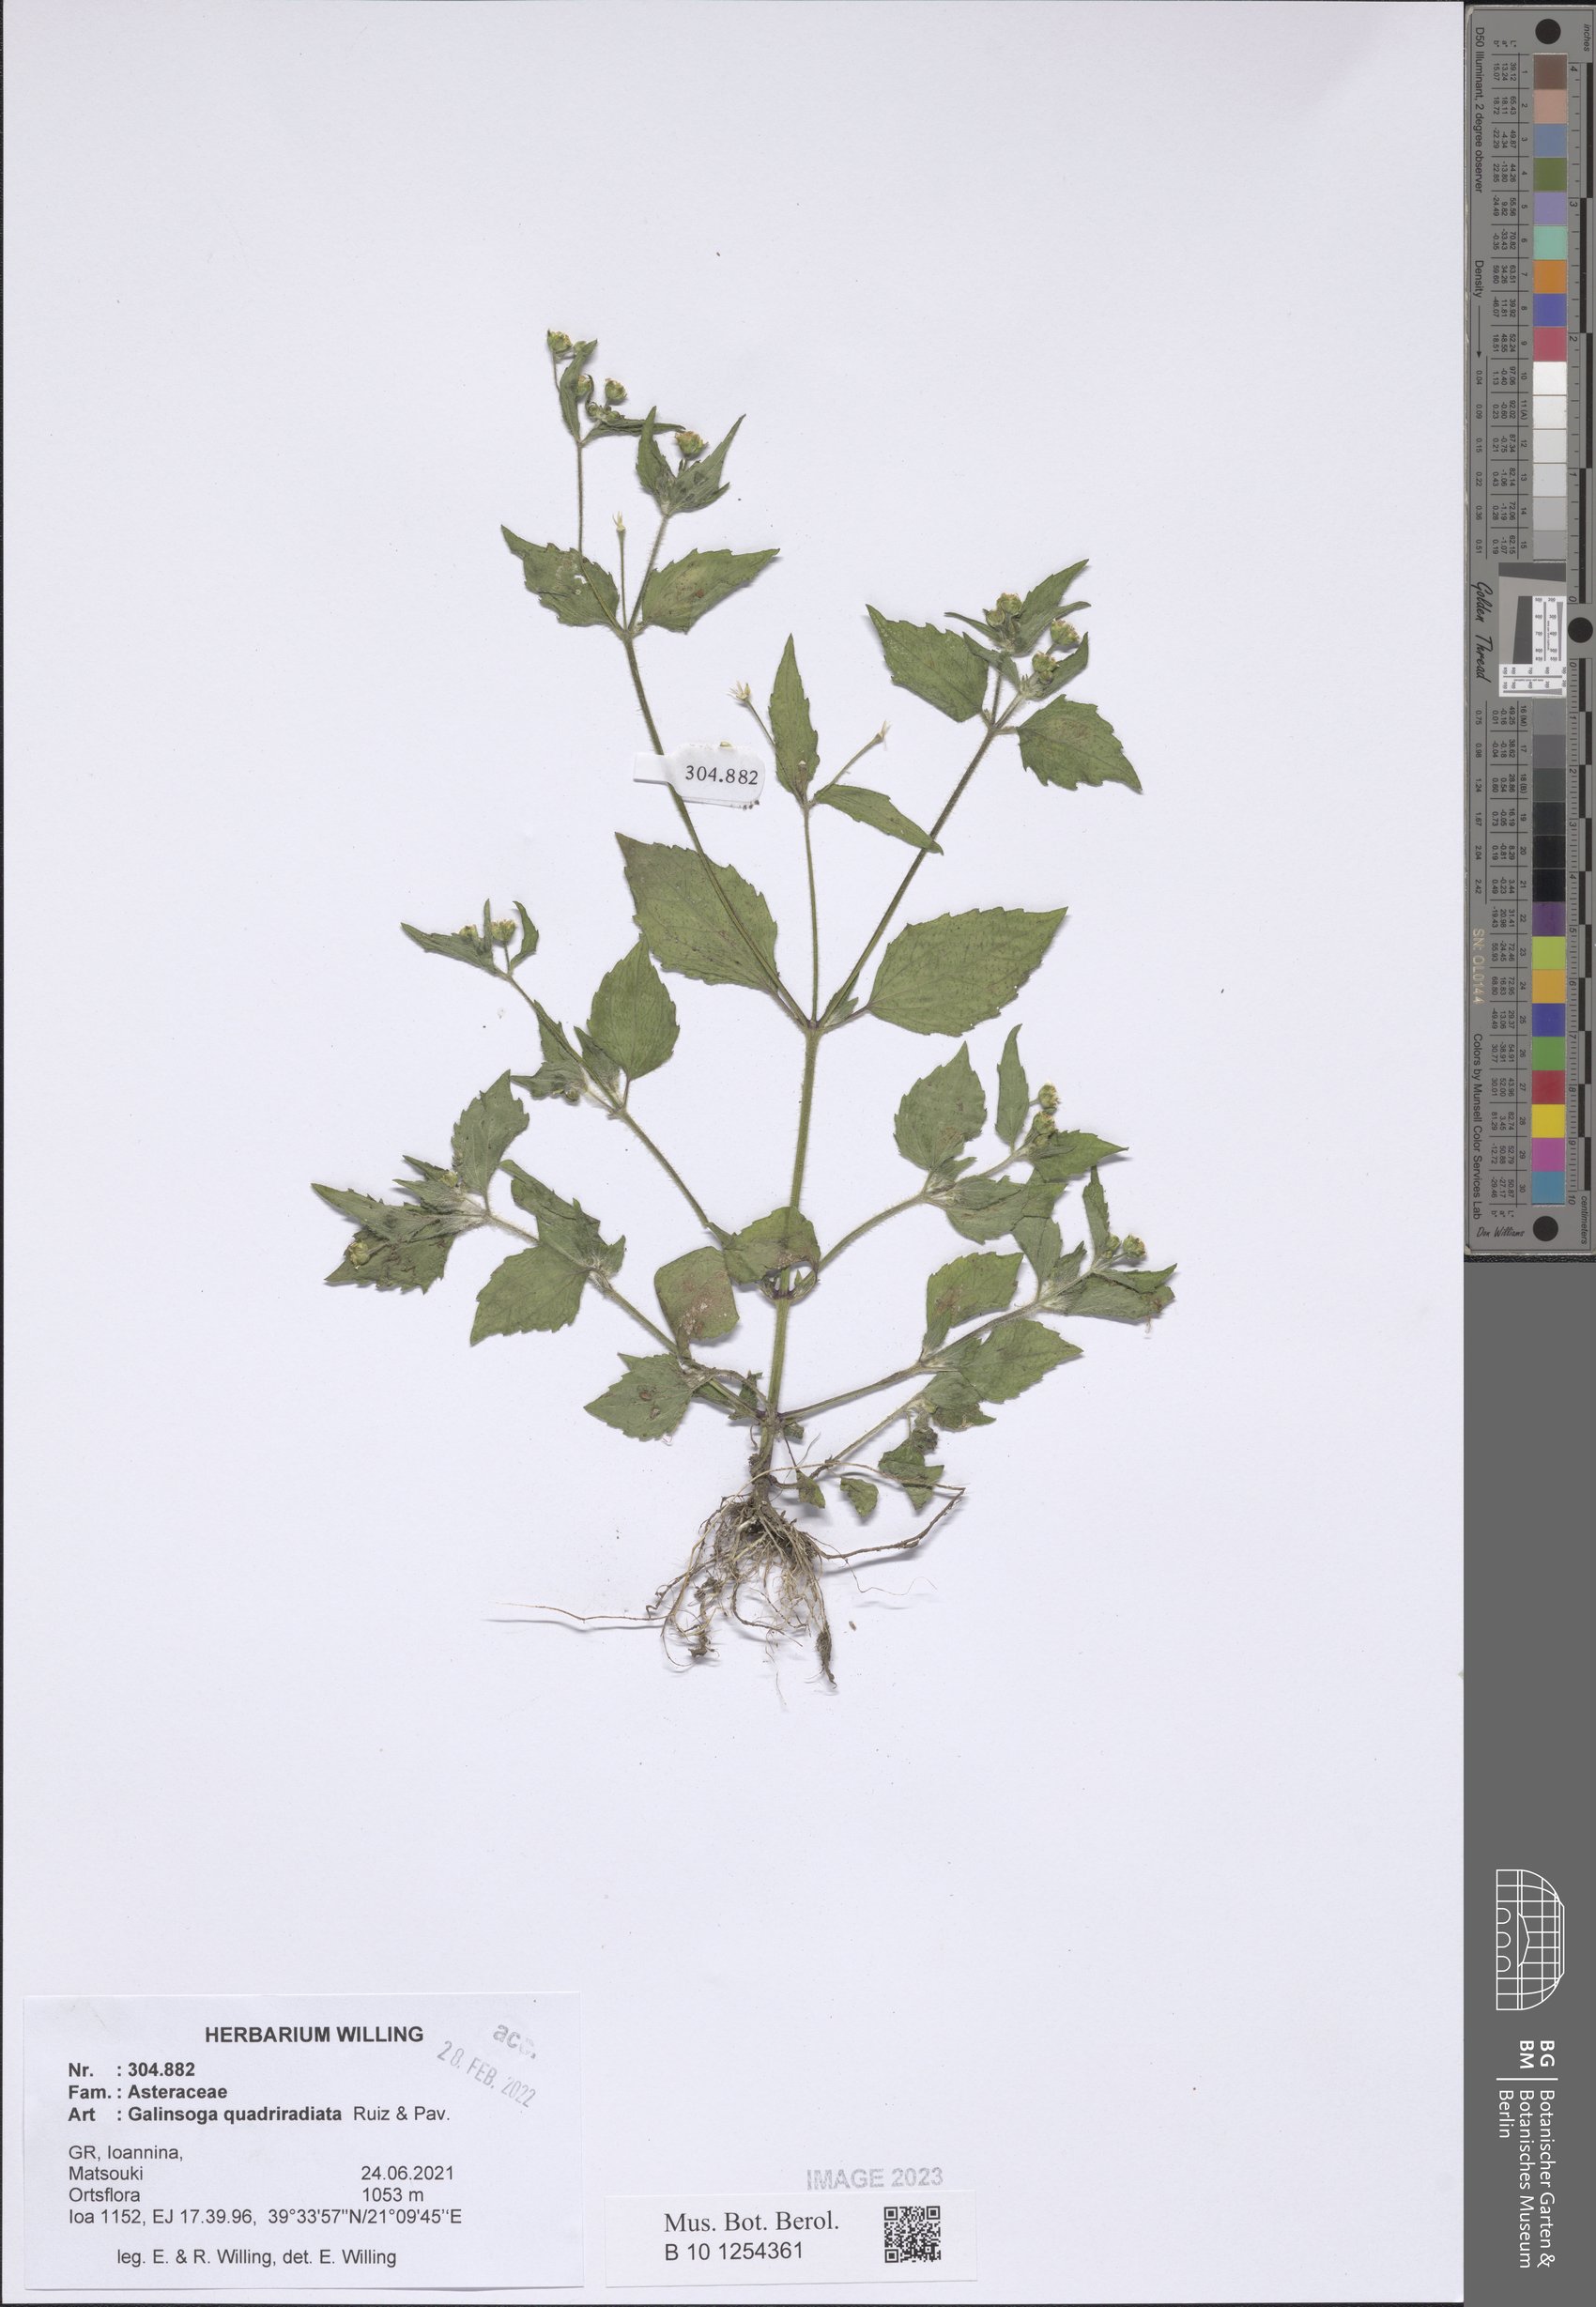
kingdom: Plantae
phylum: Tracheophyta
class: Magnoliopsida
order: Asterales
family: Asteraceae
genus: Galinsoga
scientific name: Galinsoga quadriradiata
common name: Shaggy soldier
